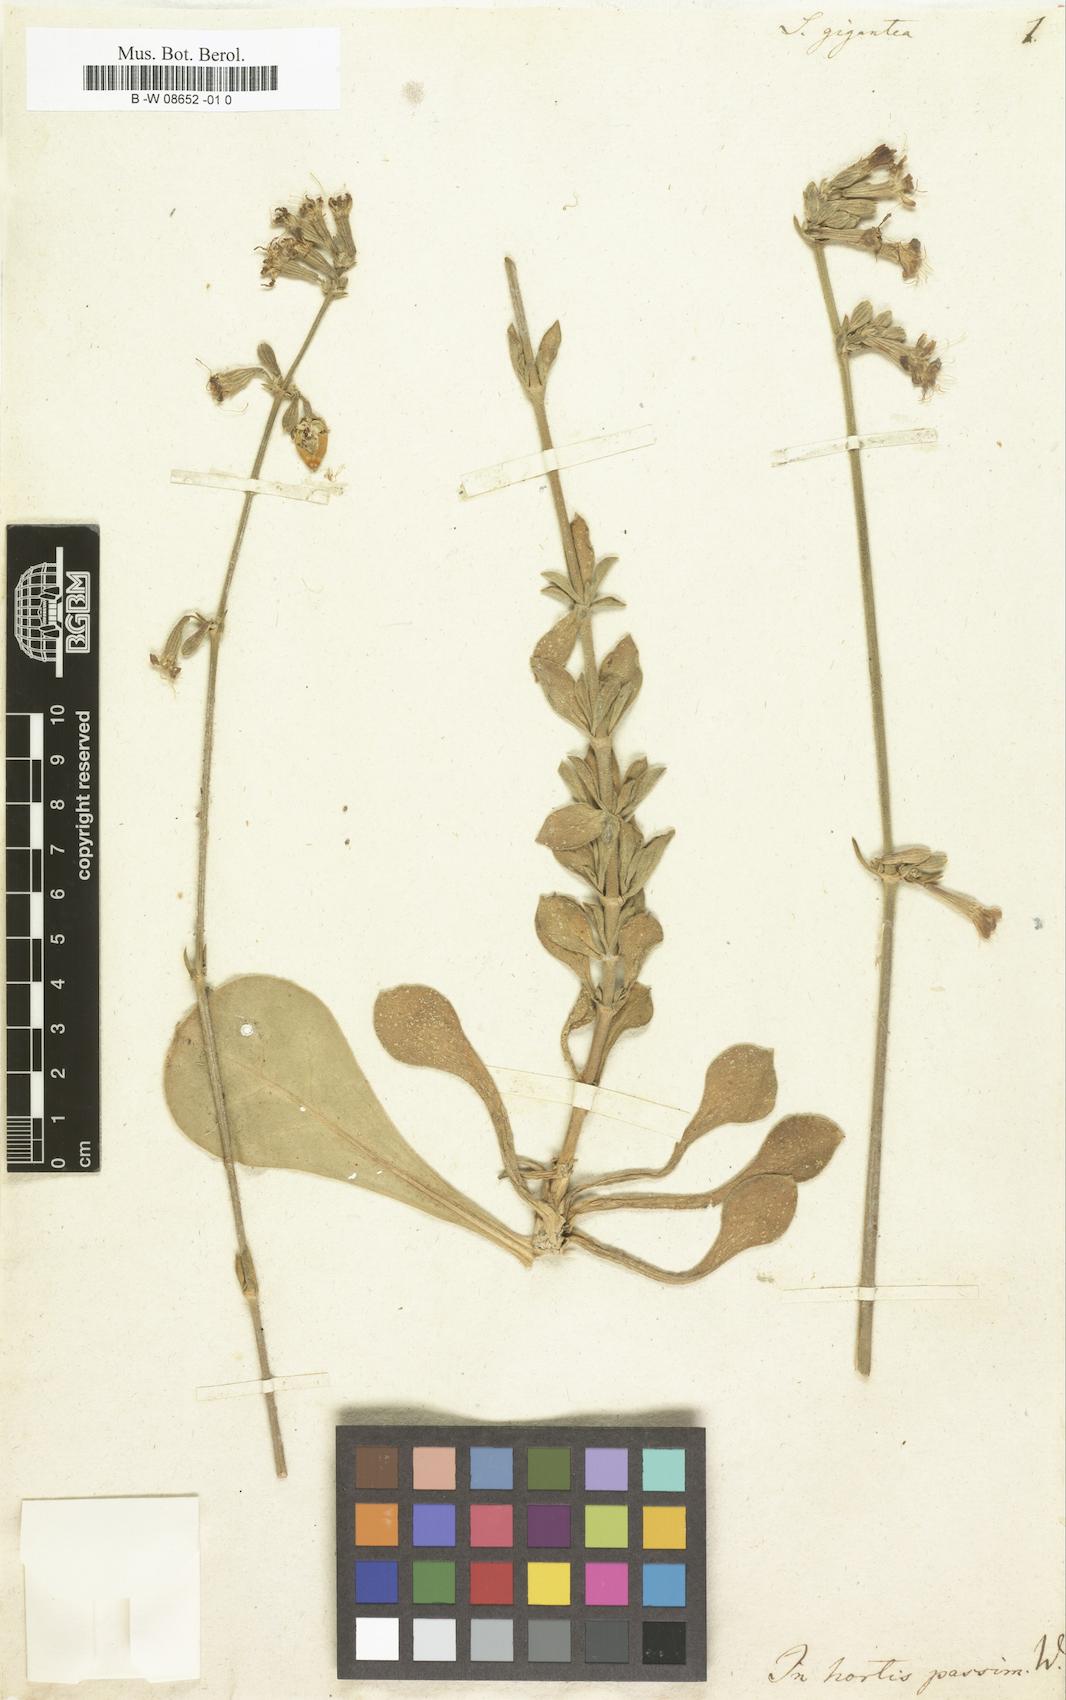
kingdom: Plantae
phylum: Tracheophyta
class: Magnoliopsida
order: Caryophyllales
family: Caryophyllaceae
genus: Silene
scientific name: Silene gigantea
